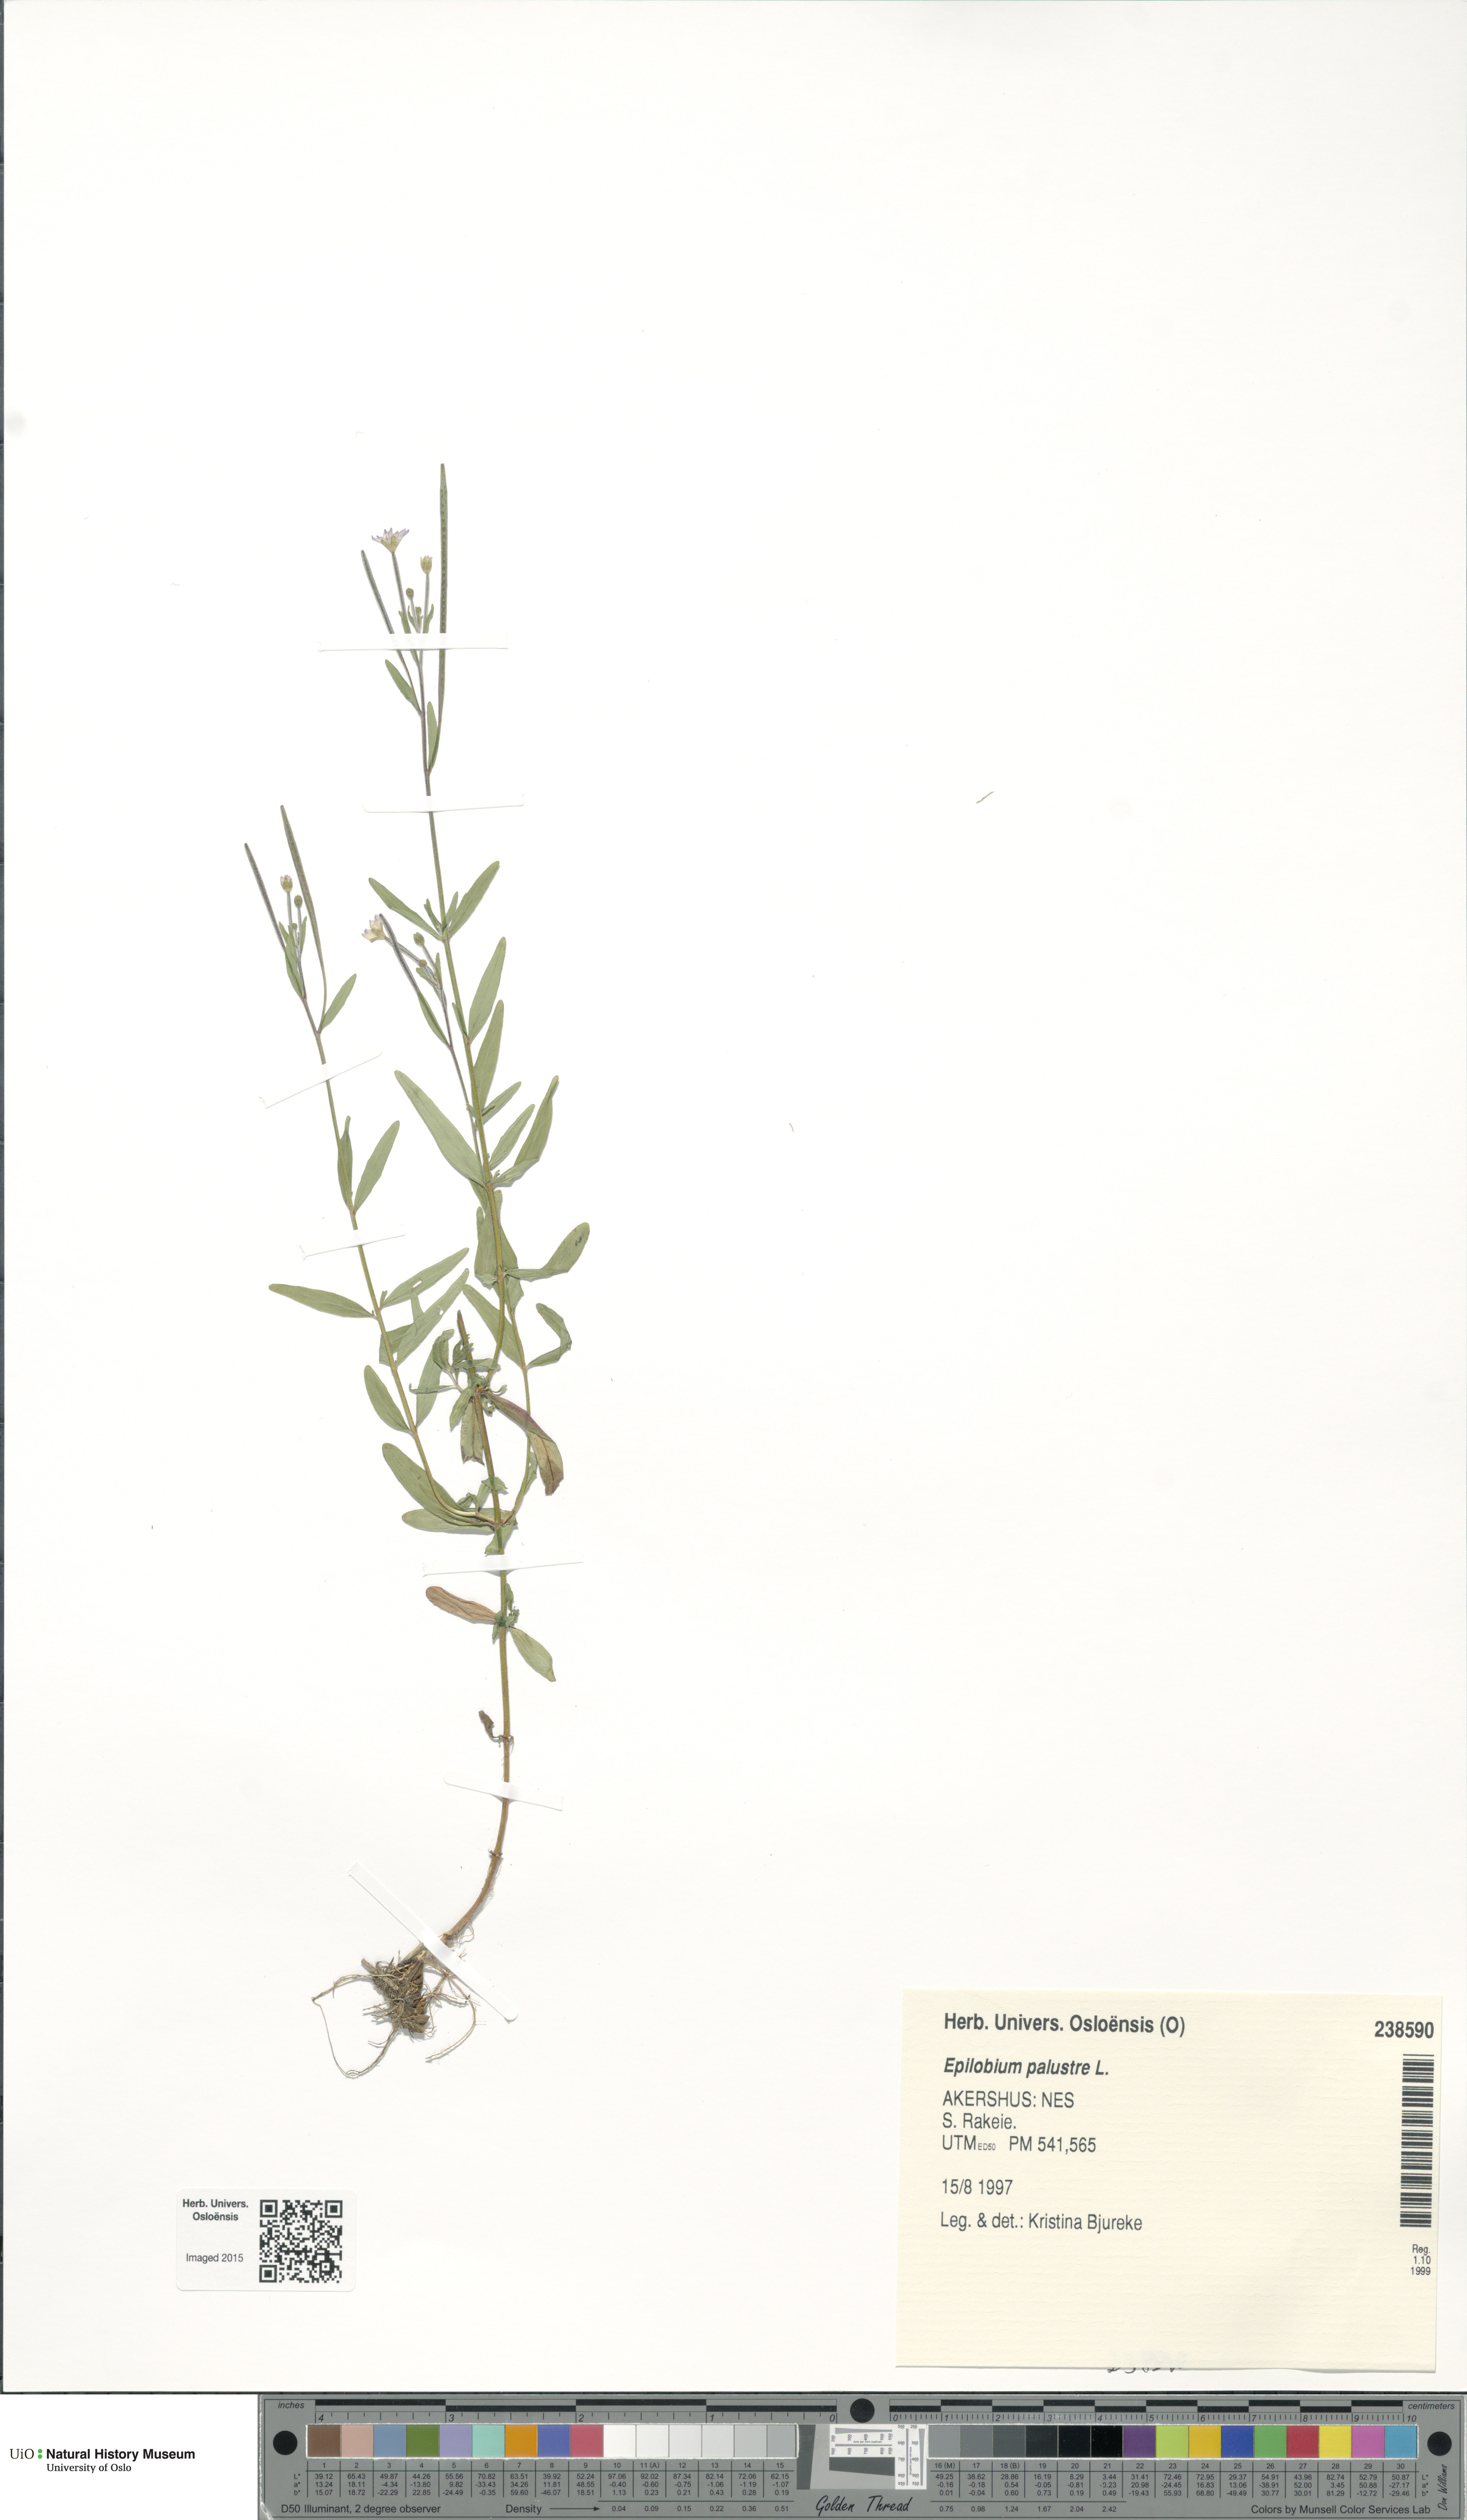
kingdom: Plantae
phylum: Tracheophyta
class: Magnoliopsida
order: Myrtales
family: Onagraceae
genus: Epilobium
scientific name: Epilobium palustre
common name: Marsh willowherb
